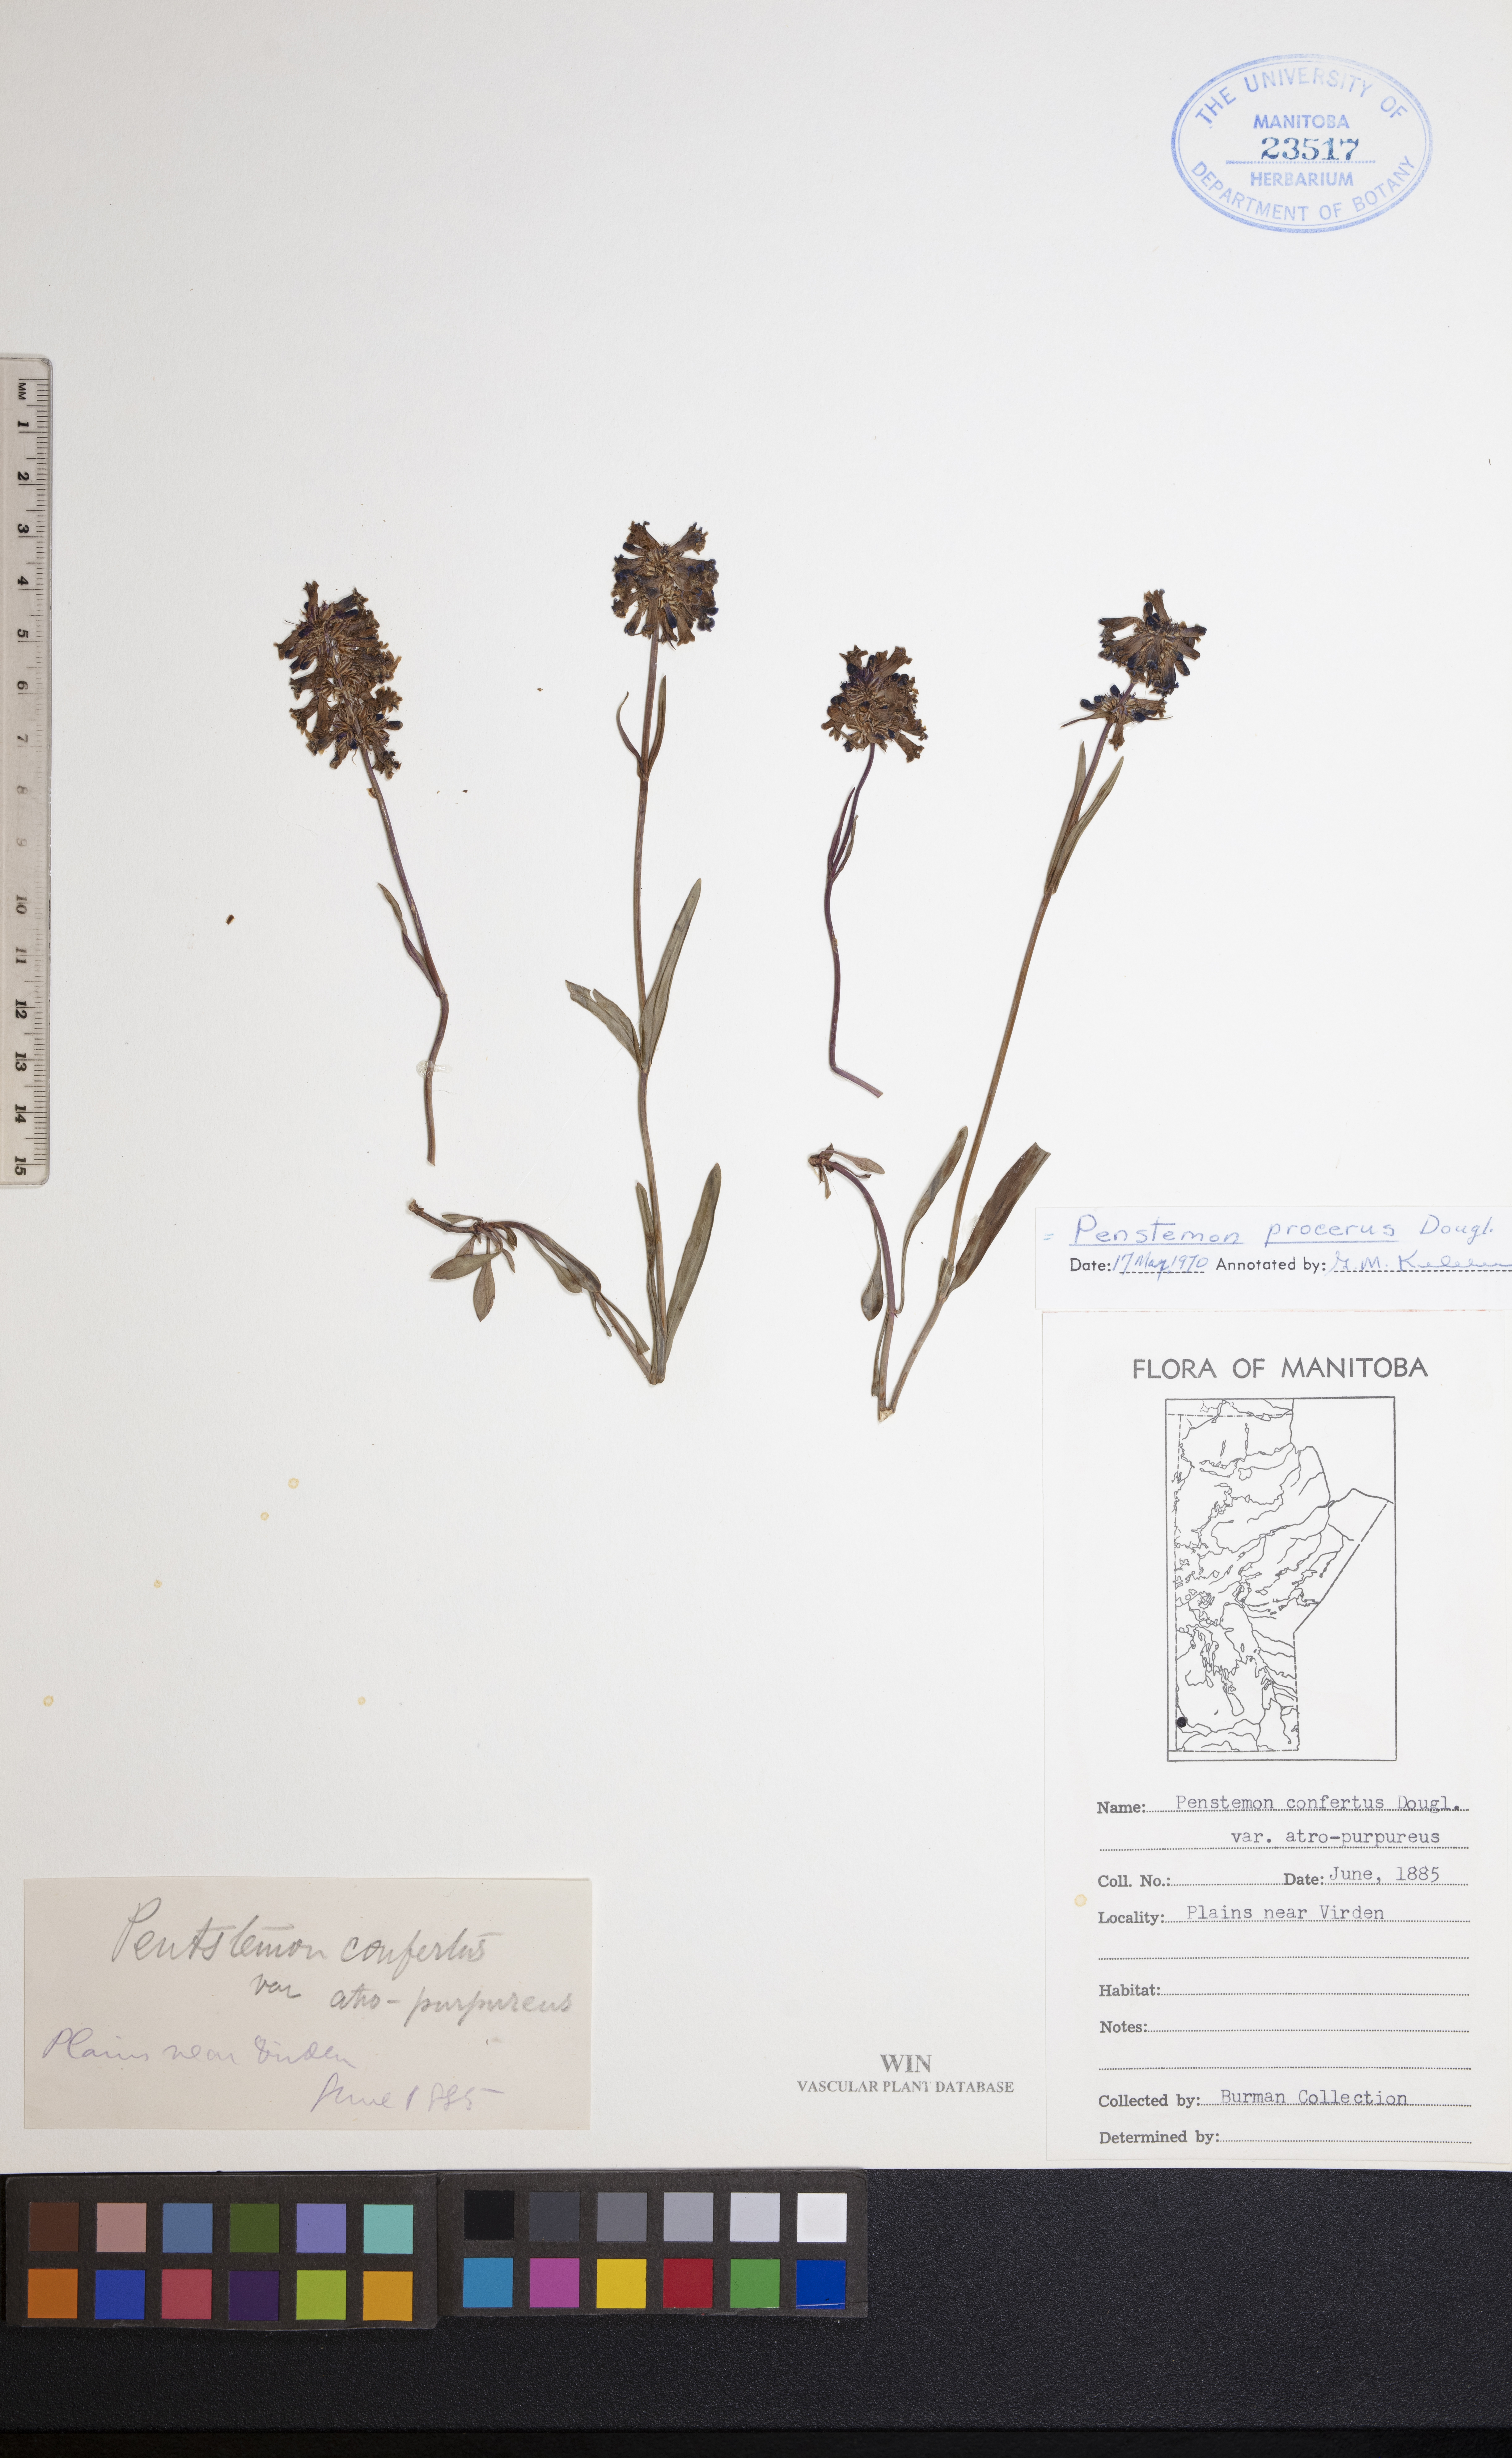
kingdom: Plantae
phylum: Tracheophyta
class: Magnoliopsida
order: Lamiales
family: Plantaginaceae
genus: Penstemon
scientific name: Penstemon procerus
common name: Small-flower penstemon
